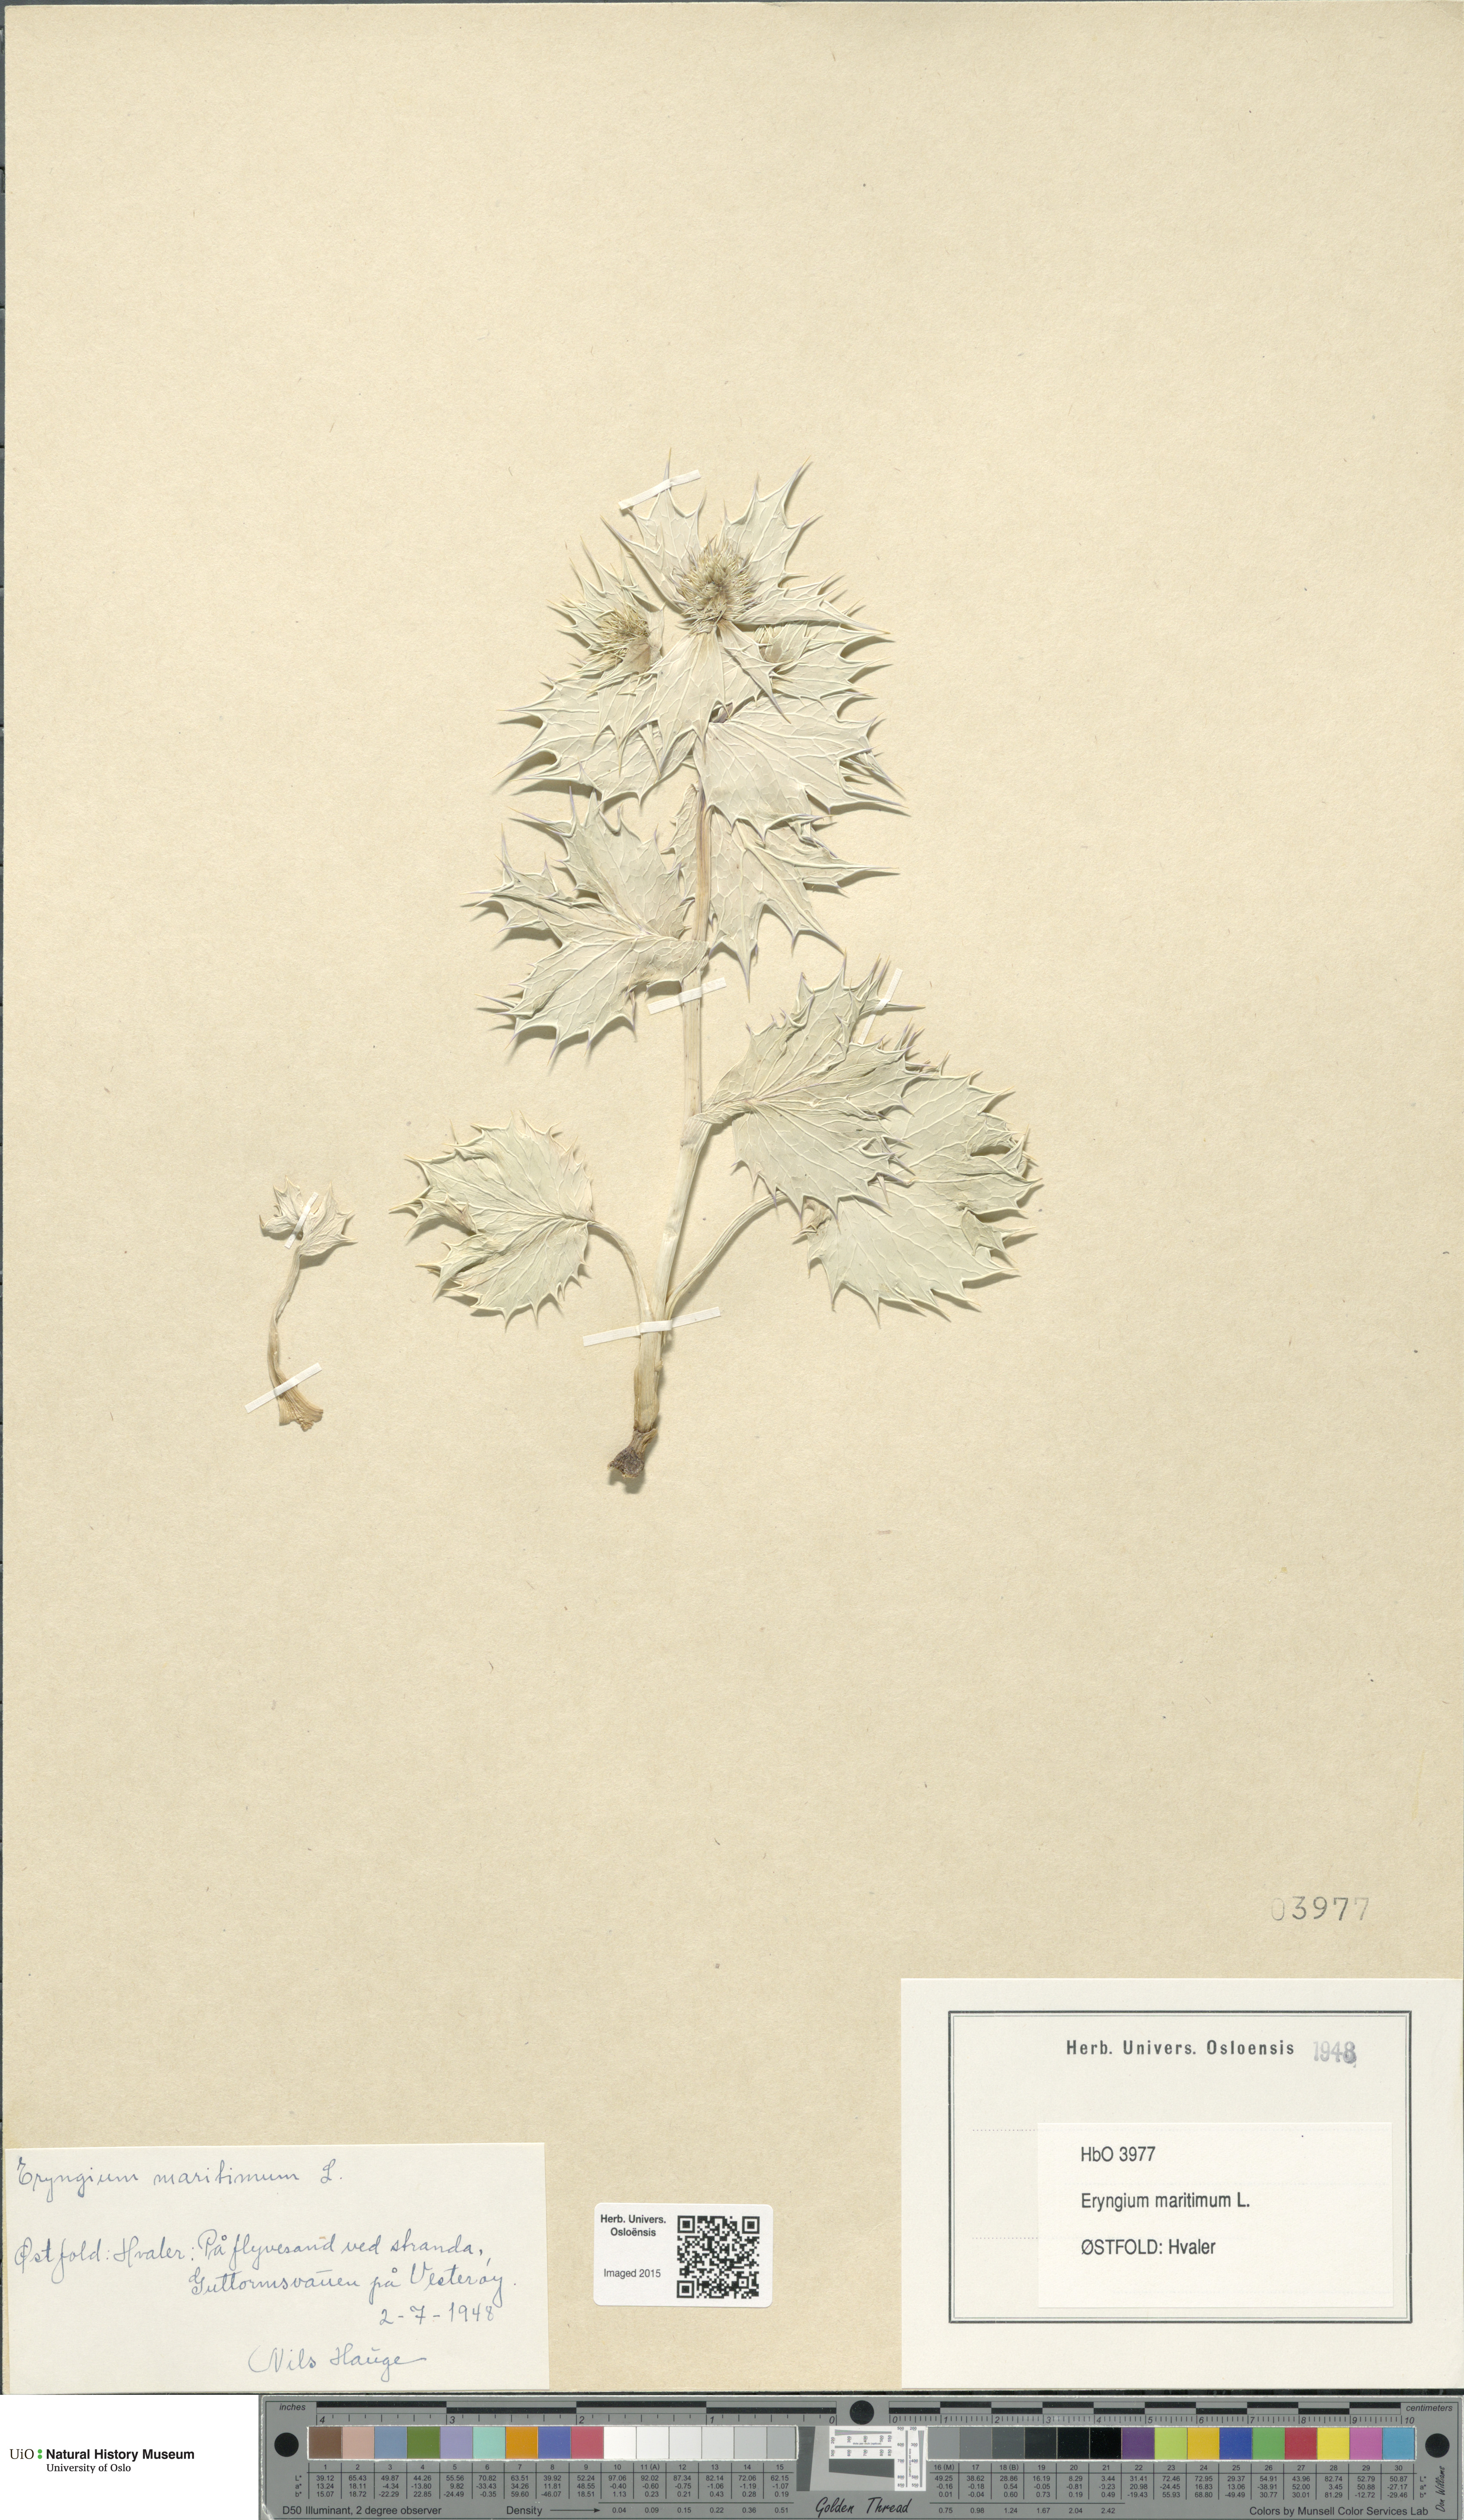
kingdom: Plantae
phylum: Tracheophyta
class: Magnoliopsida
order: Apiales
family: Apiaceae
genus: Eryngium
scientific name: Eryngium maritimum
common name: Sea-holly
